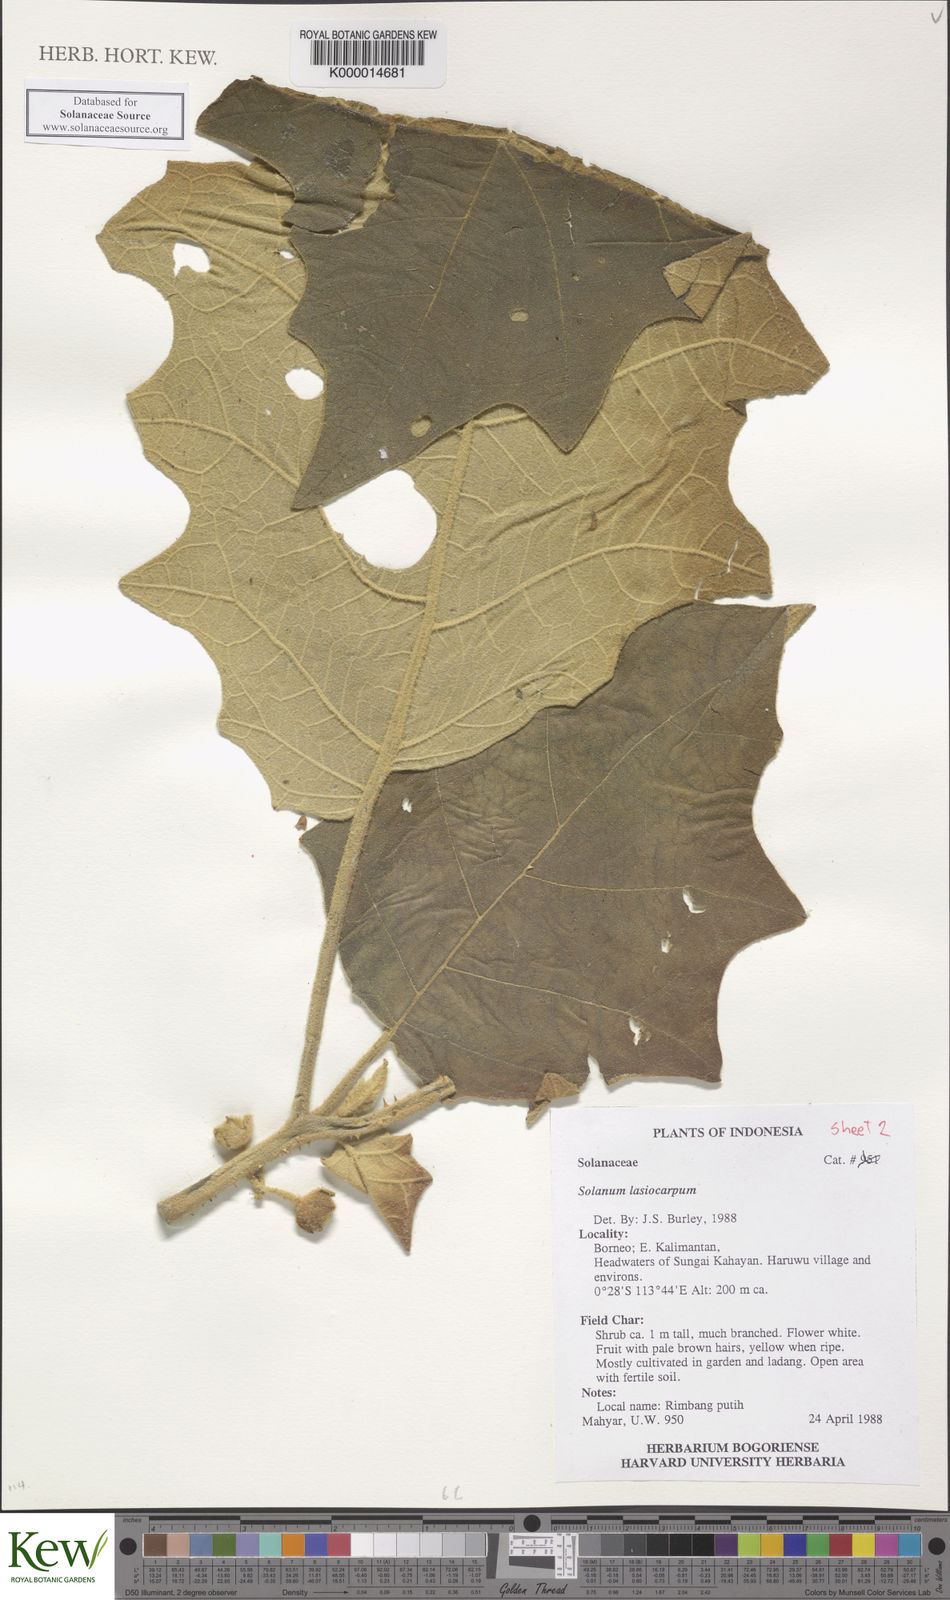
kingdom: Plantae
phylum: Tracheophyta
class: Magnoliopsida
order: Solanales
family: Solanaceae
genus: Solanum
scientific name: Solanum lasiocarpum
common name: Indian nightshade
